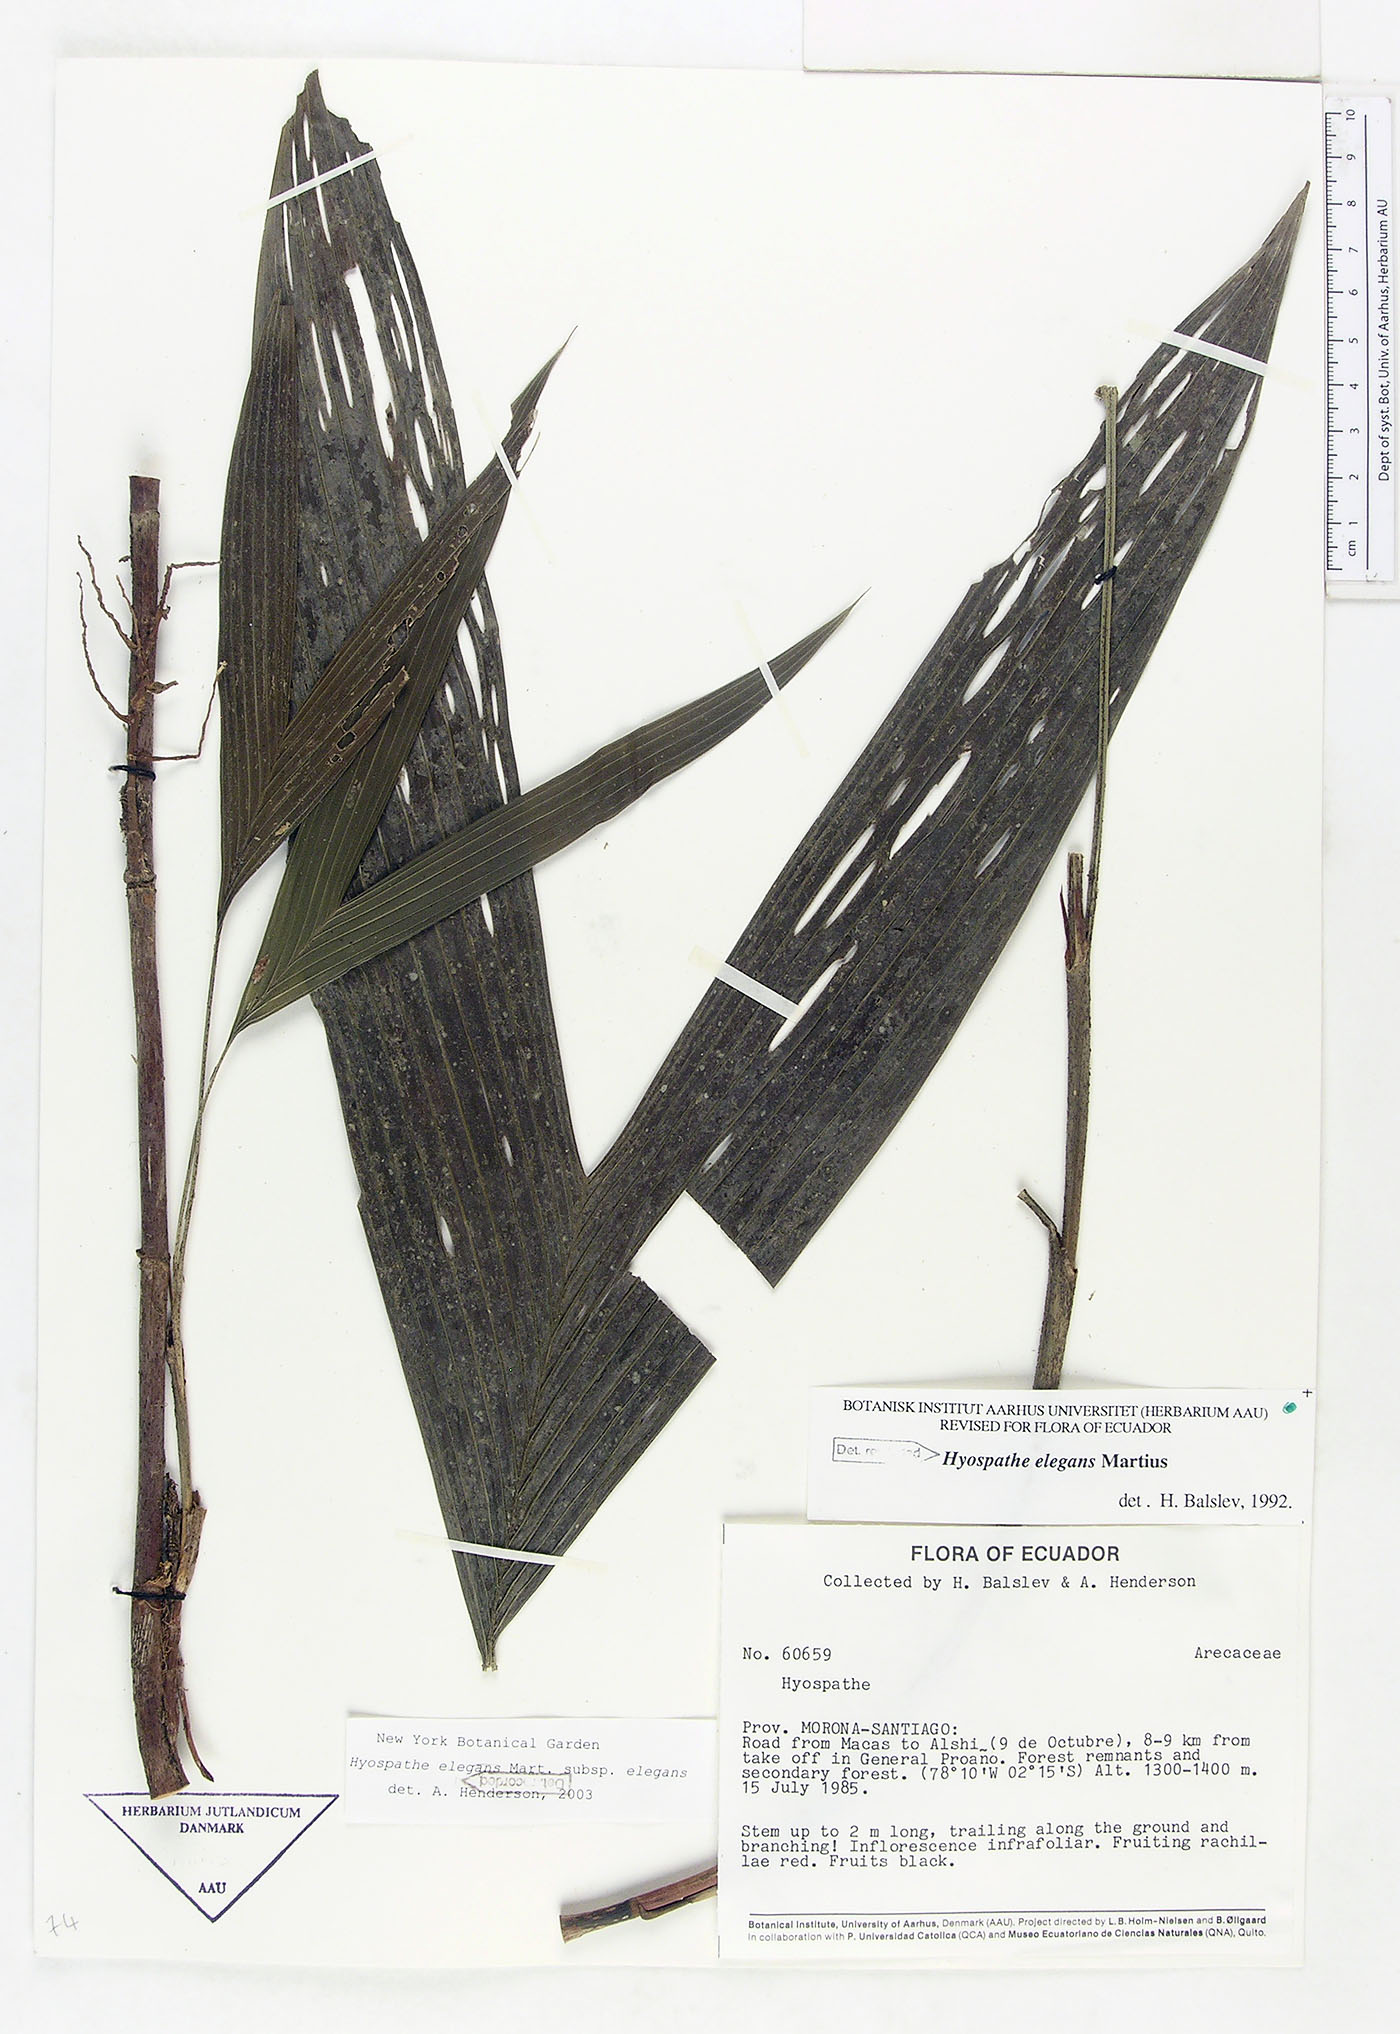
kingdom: Plantae
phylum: Tracheophyta
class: Liliopsida
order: Arecales
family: Arecaceae
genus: Hyospathe
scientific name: Hyospathe elegans
